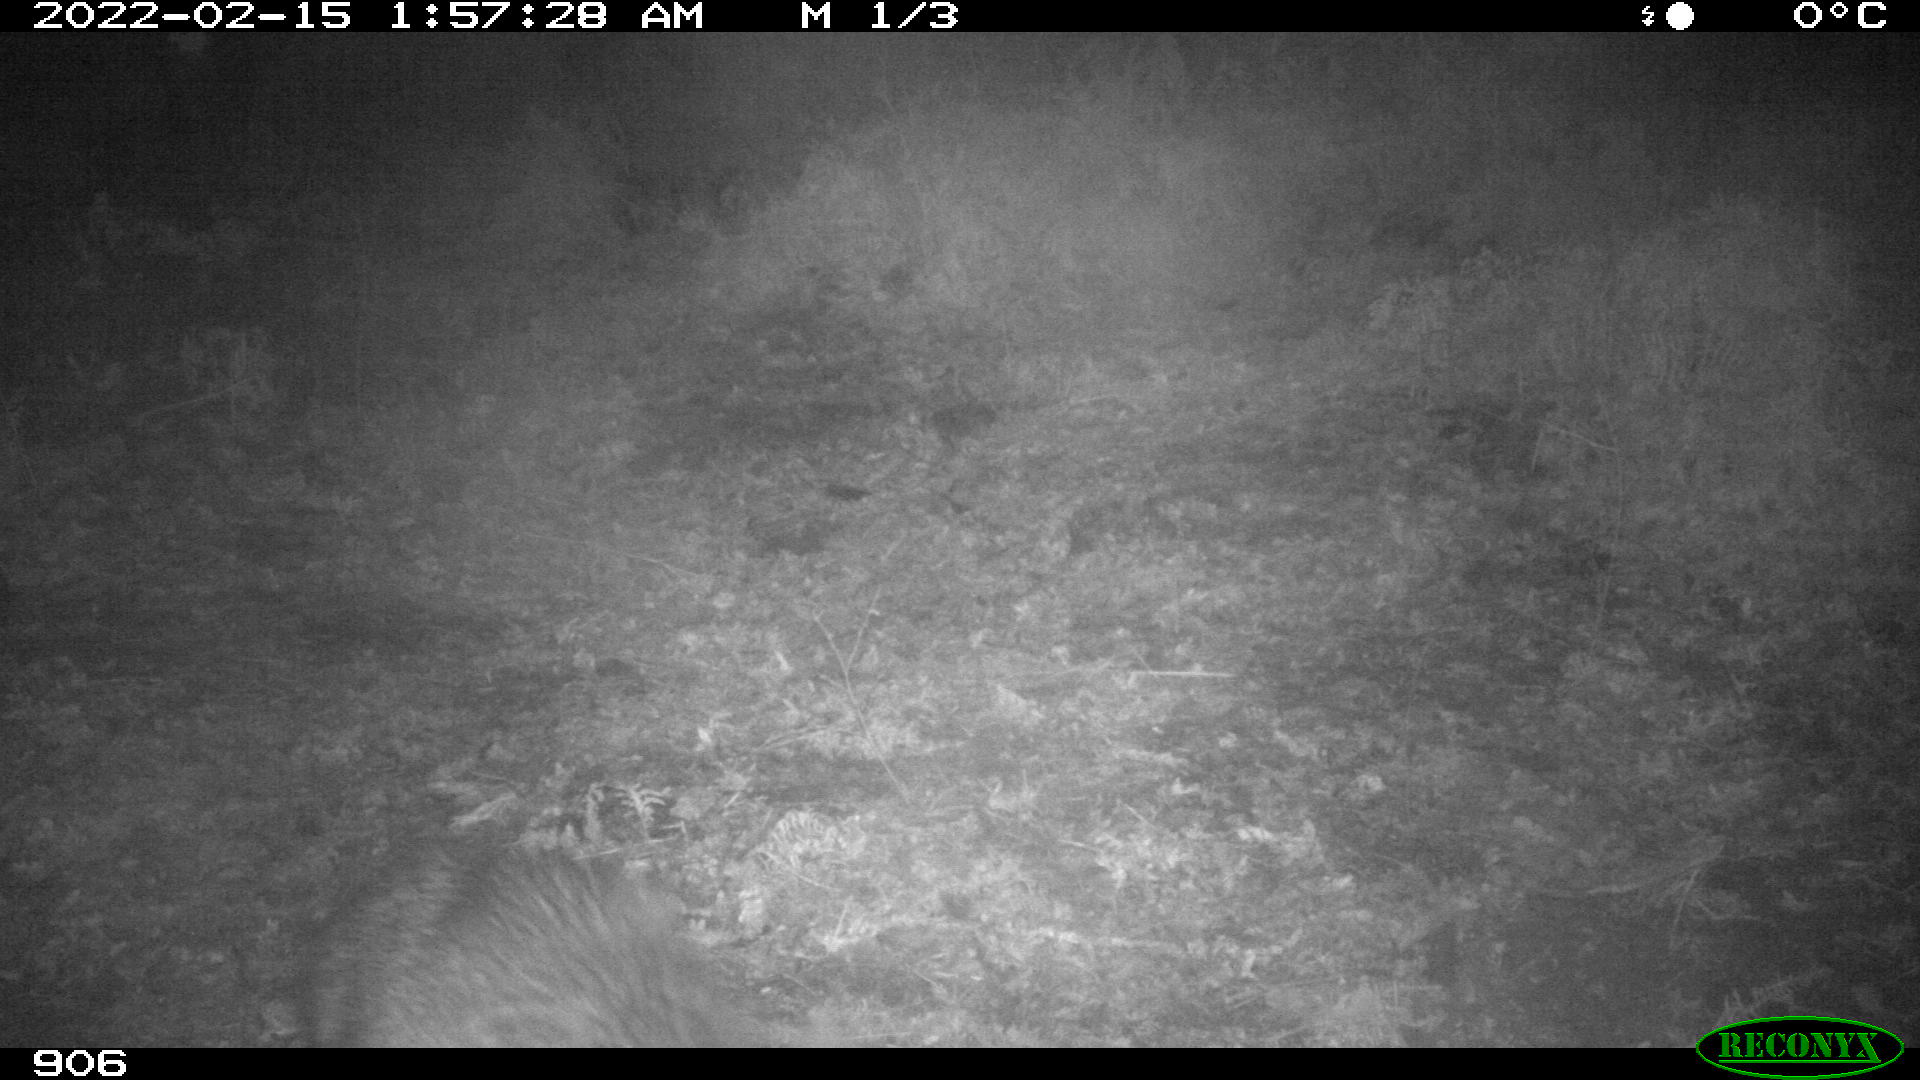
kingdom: Animalia
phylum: Chordata
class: Mammalia
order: Artiodactyla
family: Suidae
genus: Sus
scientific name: Sus scrofa
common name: Wild boar
